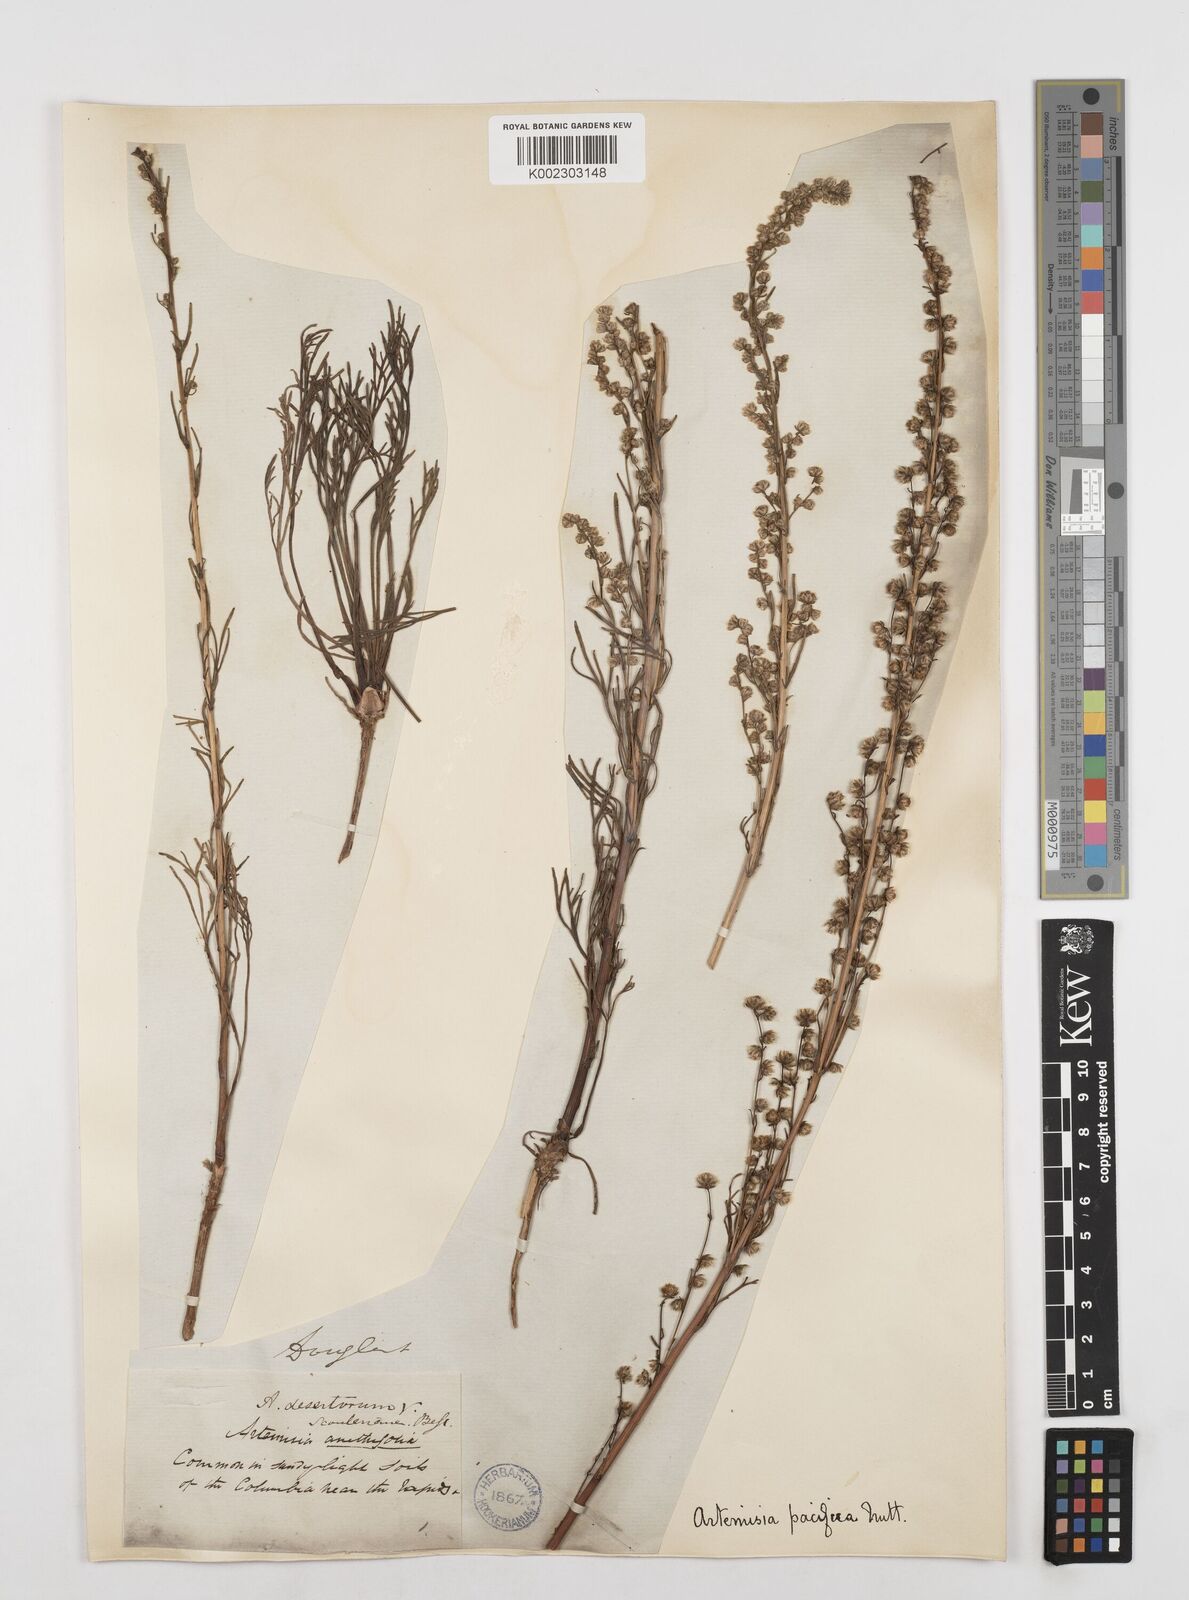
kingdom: Plantae
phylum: Tracheophyta
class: Magnoliopsida
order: Asterales
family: Asteraceae
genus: Artemisia
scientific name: Artemisia campestris
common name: Field wormwood
